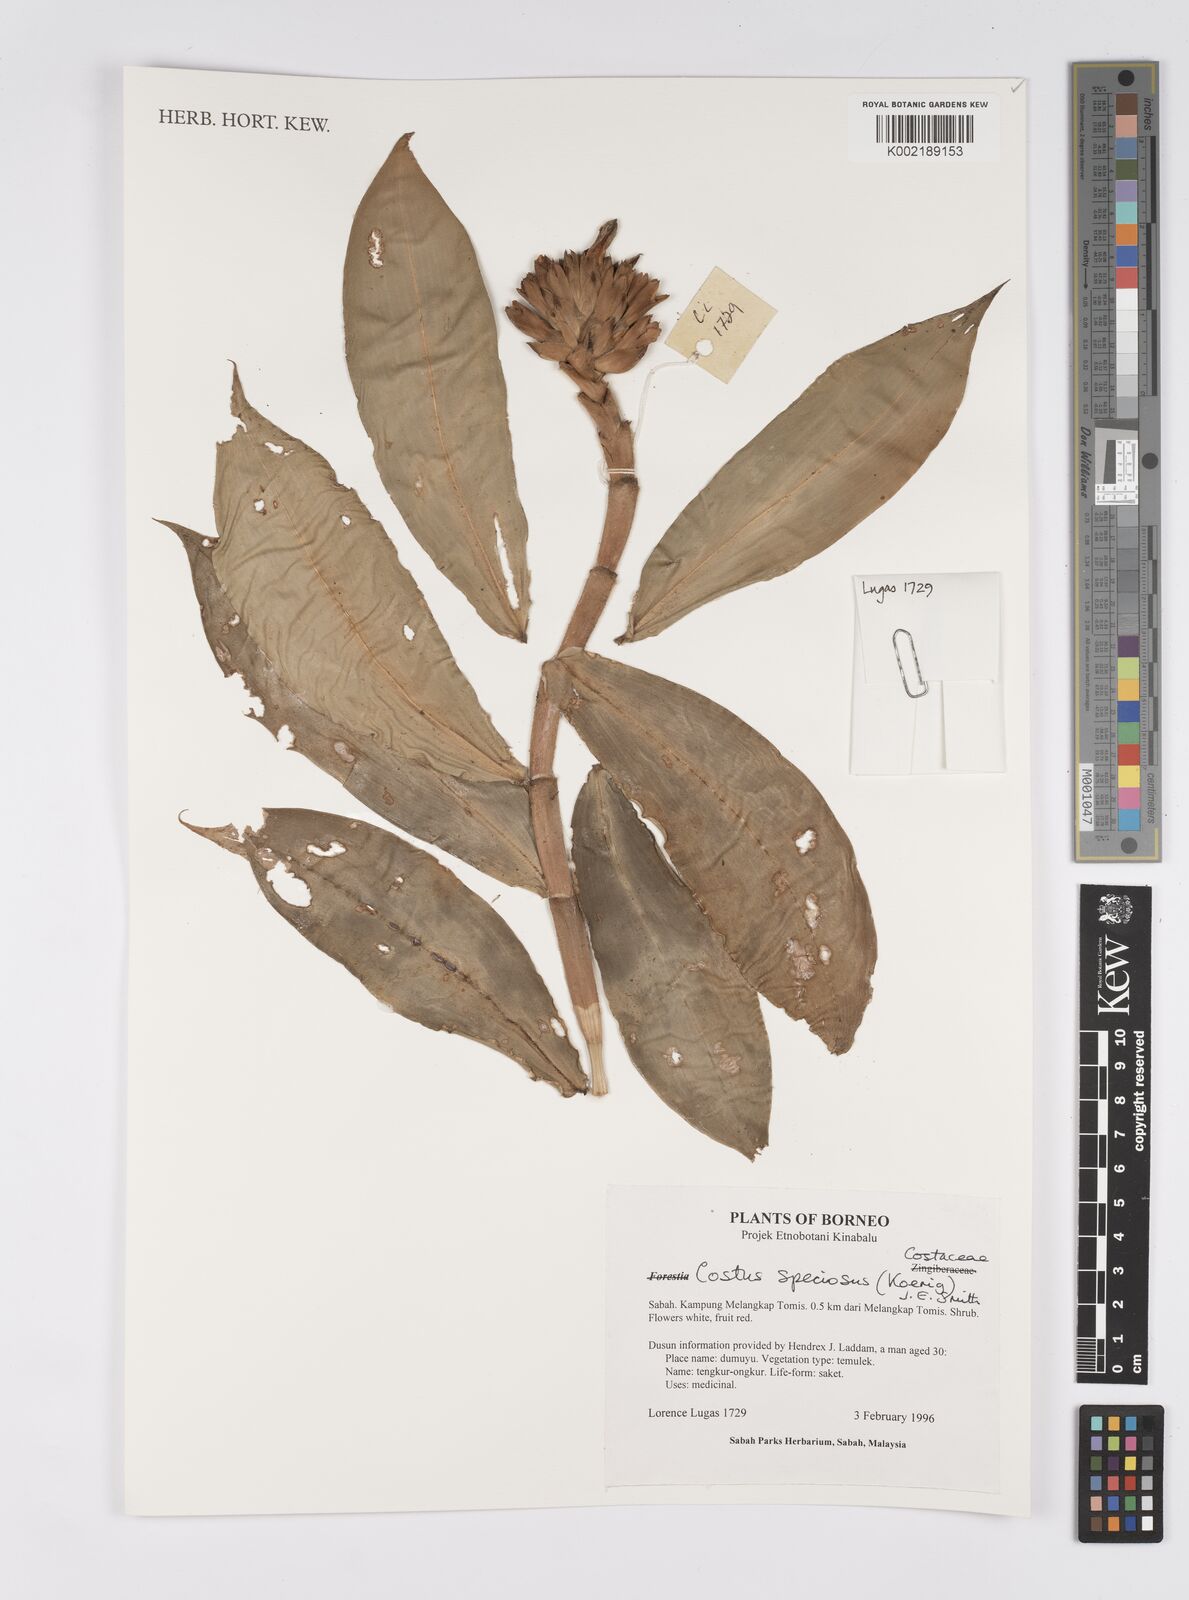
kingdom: Plantae
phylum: Tracheophyta
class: Liliopsida
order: Zingiberales
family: Costaceae
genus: Hellenia
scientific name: Hellenia speciosa
